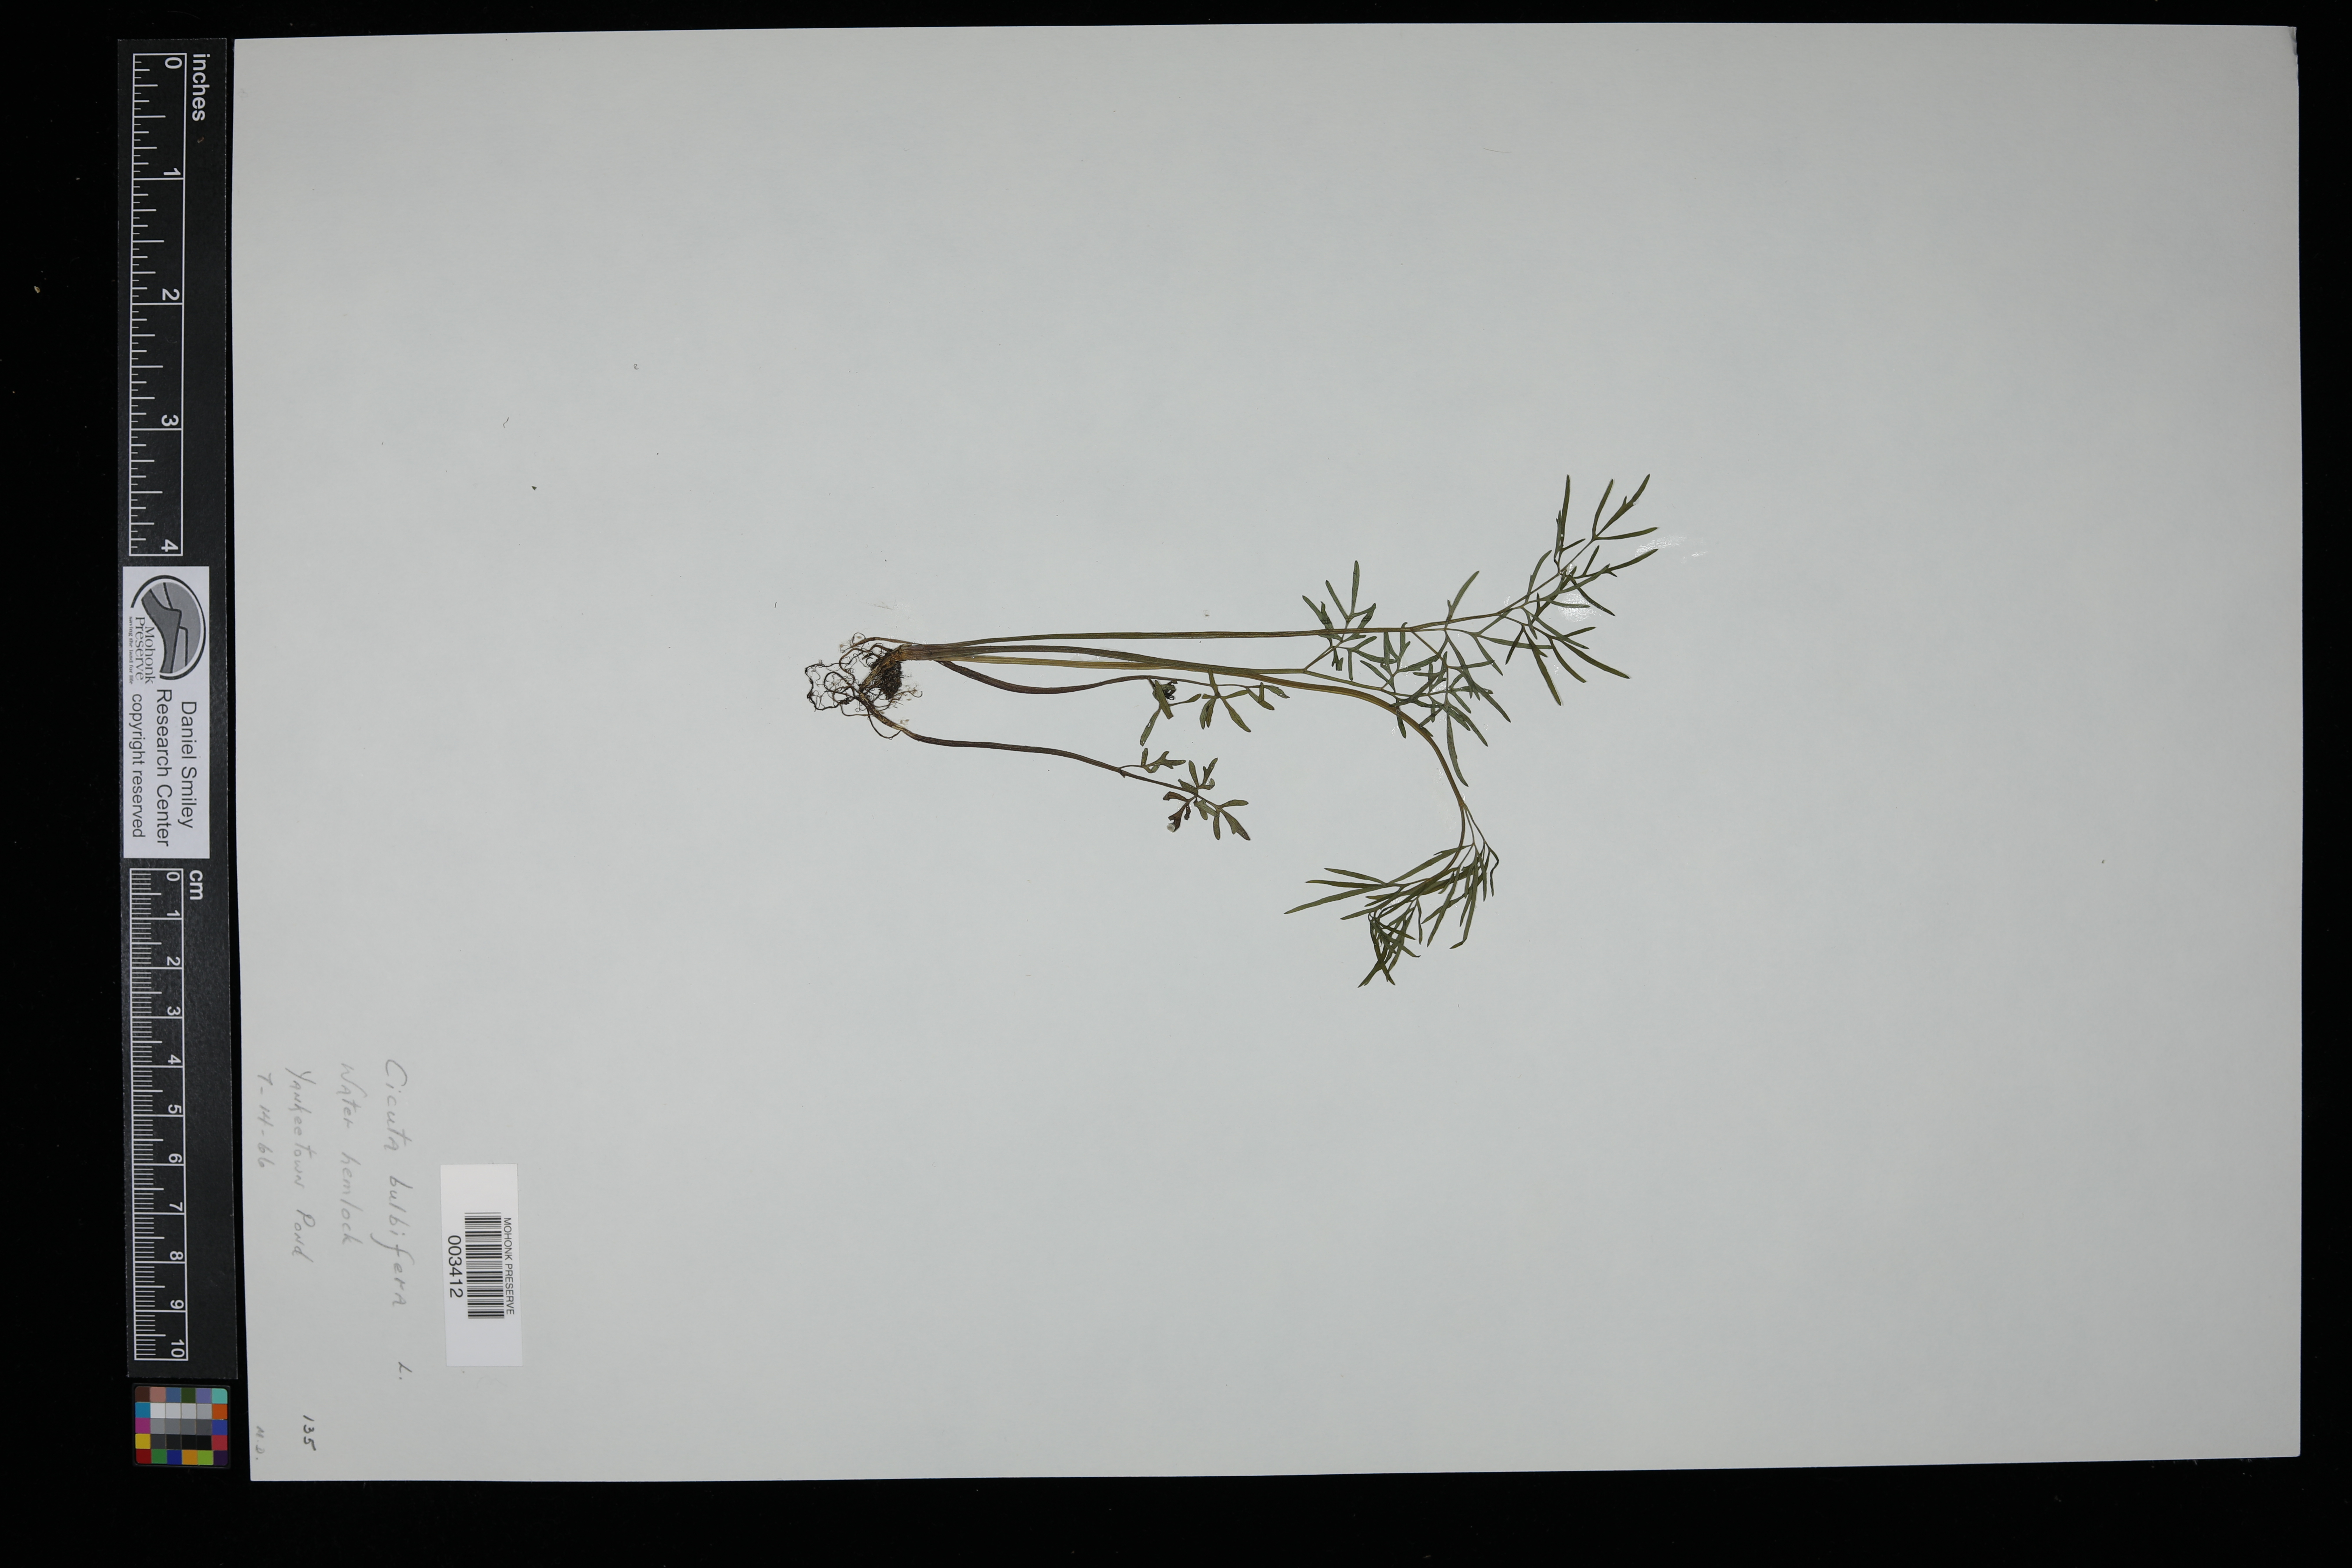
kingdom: Plantae
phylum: Tracheophyta
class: Magnoliopsida
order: Apiales
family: Apiaceae
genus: Cicuta
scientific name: Cicuta bulbifera
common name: Bulb-bearing water-hemlock
